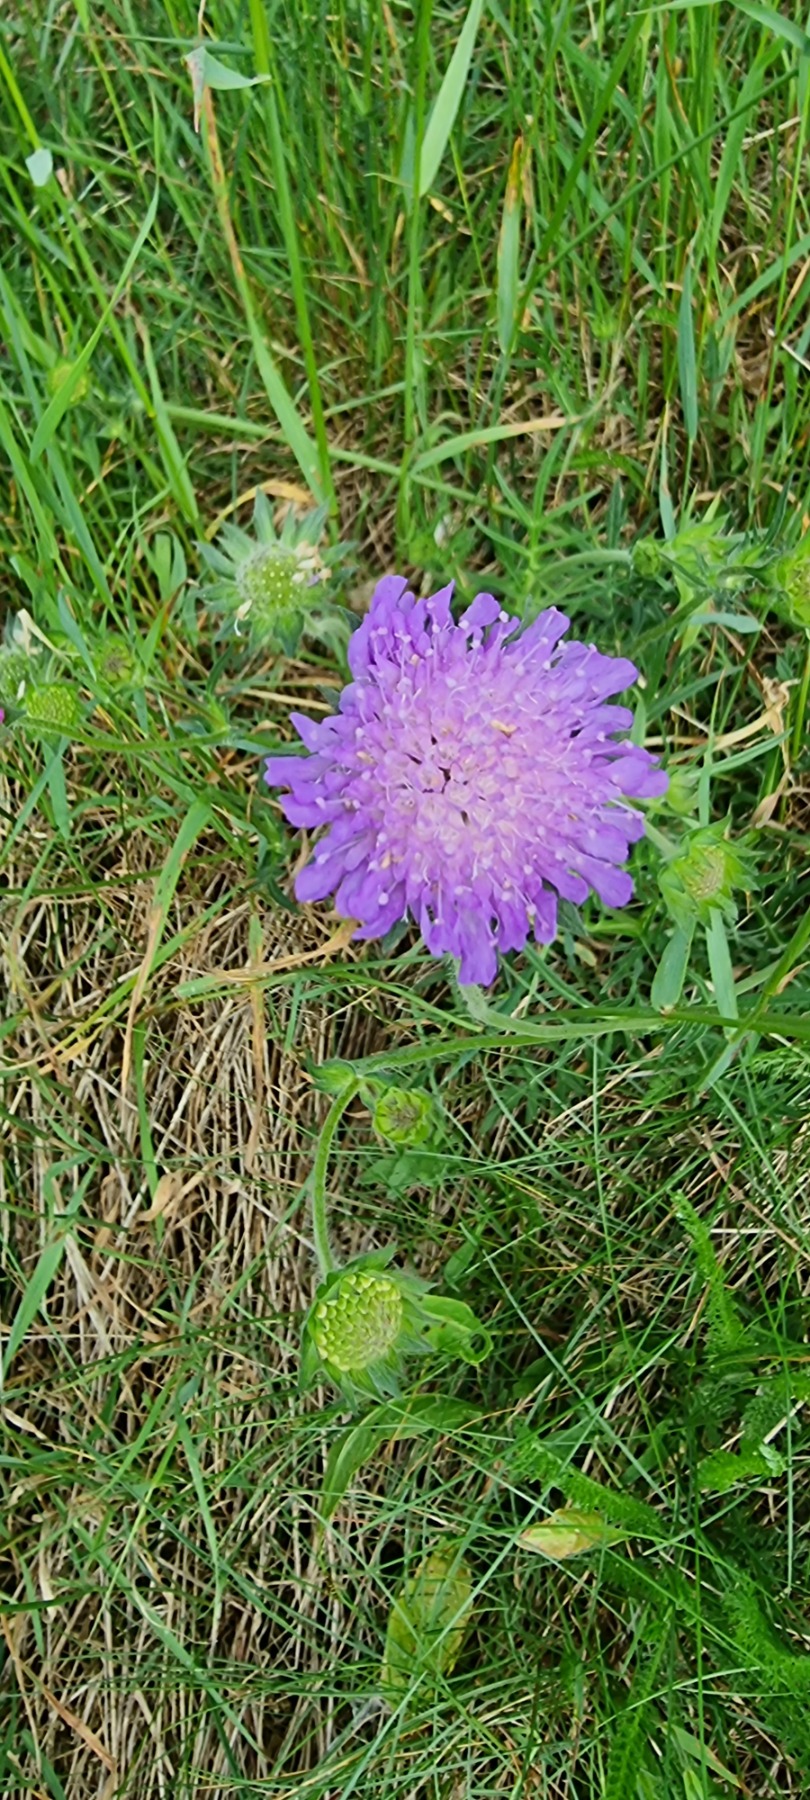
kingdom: Plantae
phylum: Tracheophyta
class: Magnoliopsida
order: Dipsacales
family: Caprifoliaceae
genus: Knautia
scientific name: Knautia arvensis
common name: Blåhat
